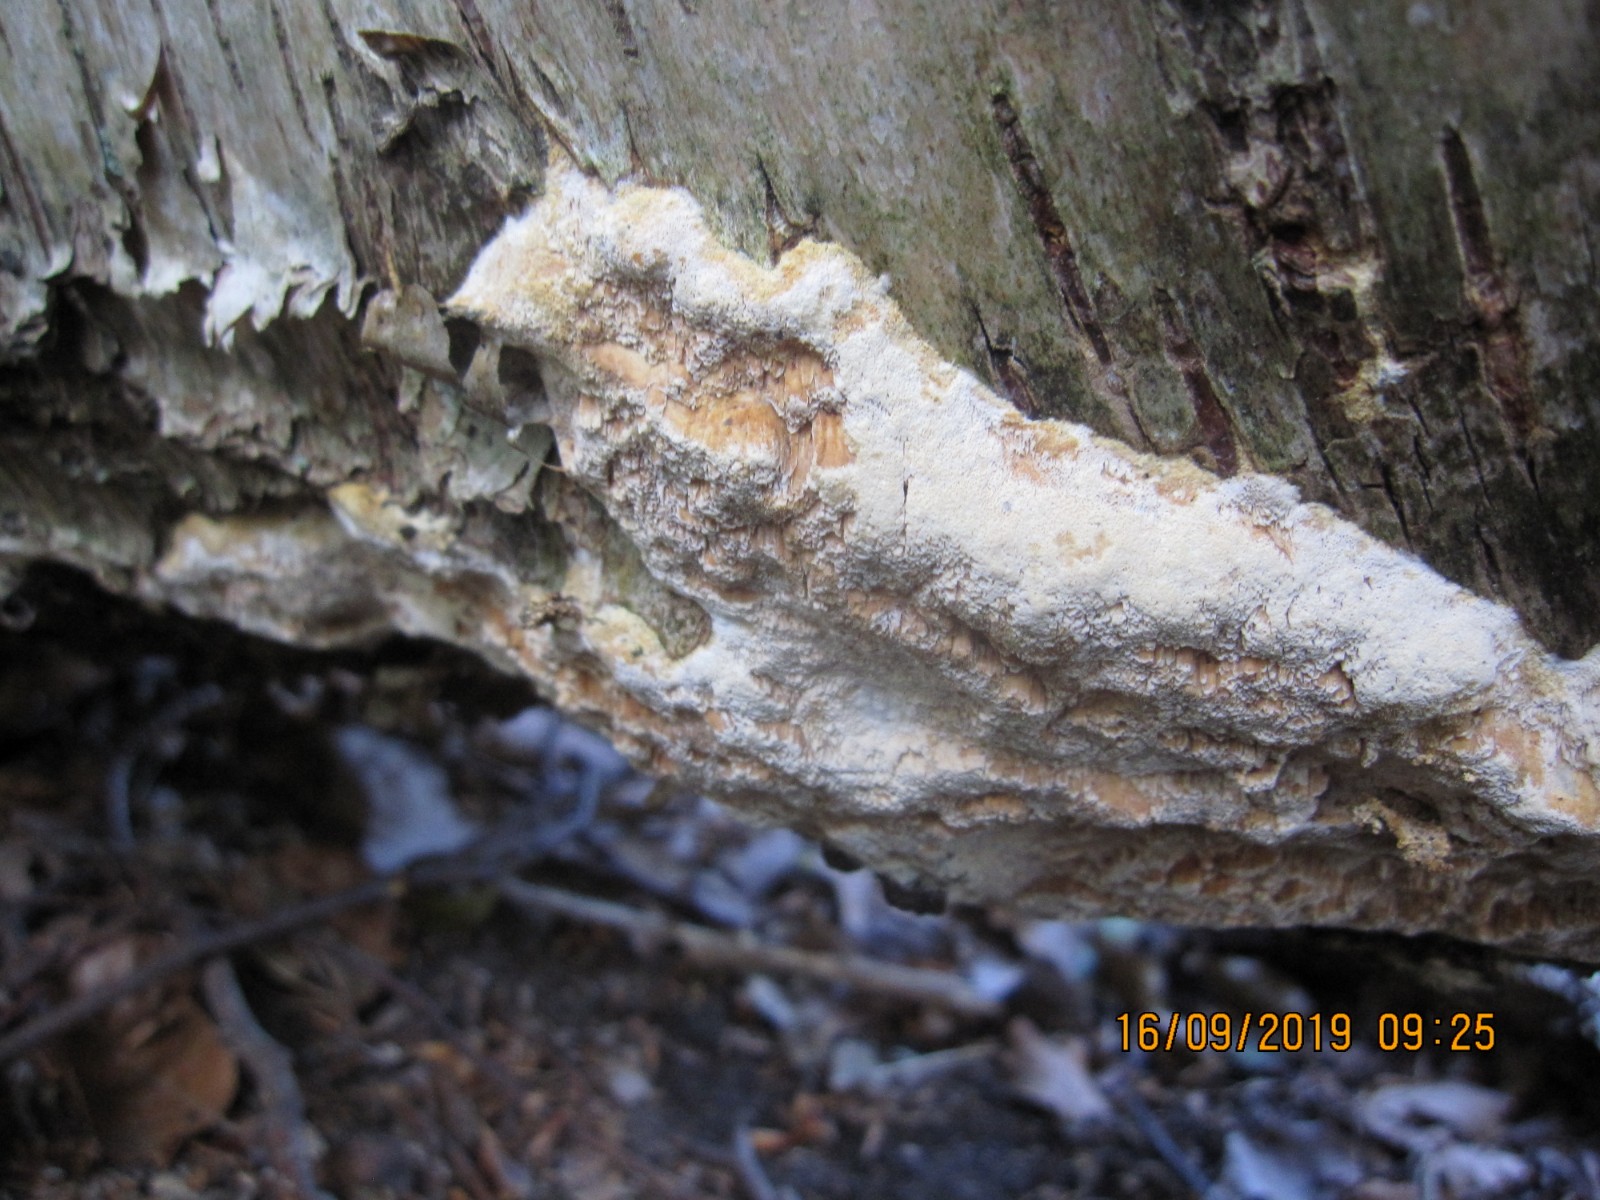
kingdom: Fungi
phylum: Basidiomycota
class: Agaricomycetes
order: Hymenochaetales
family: Schizoporaceae
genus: Xylodon
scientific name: Xylodon flaviporus
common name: gulporet tandsvamp
